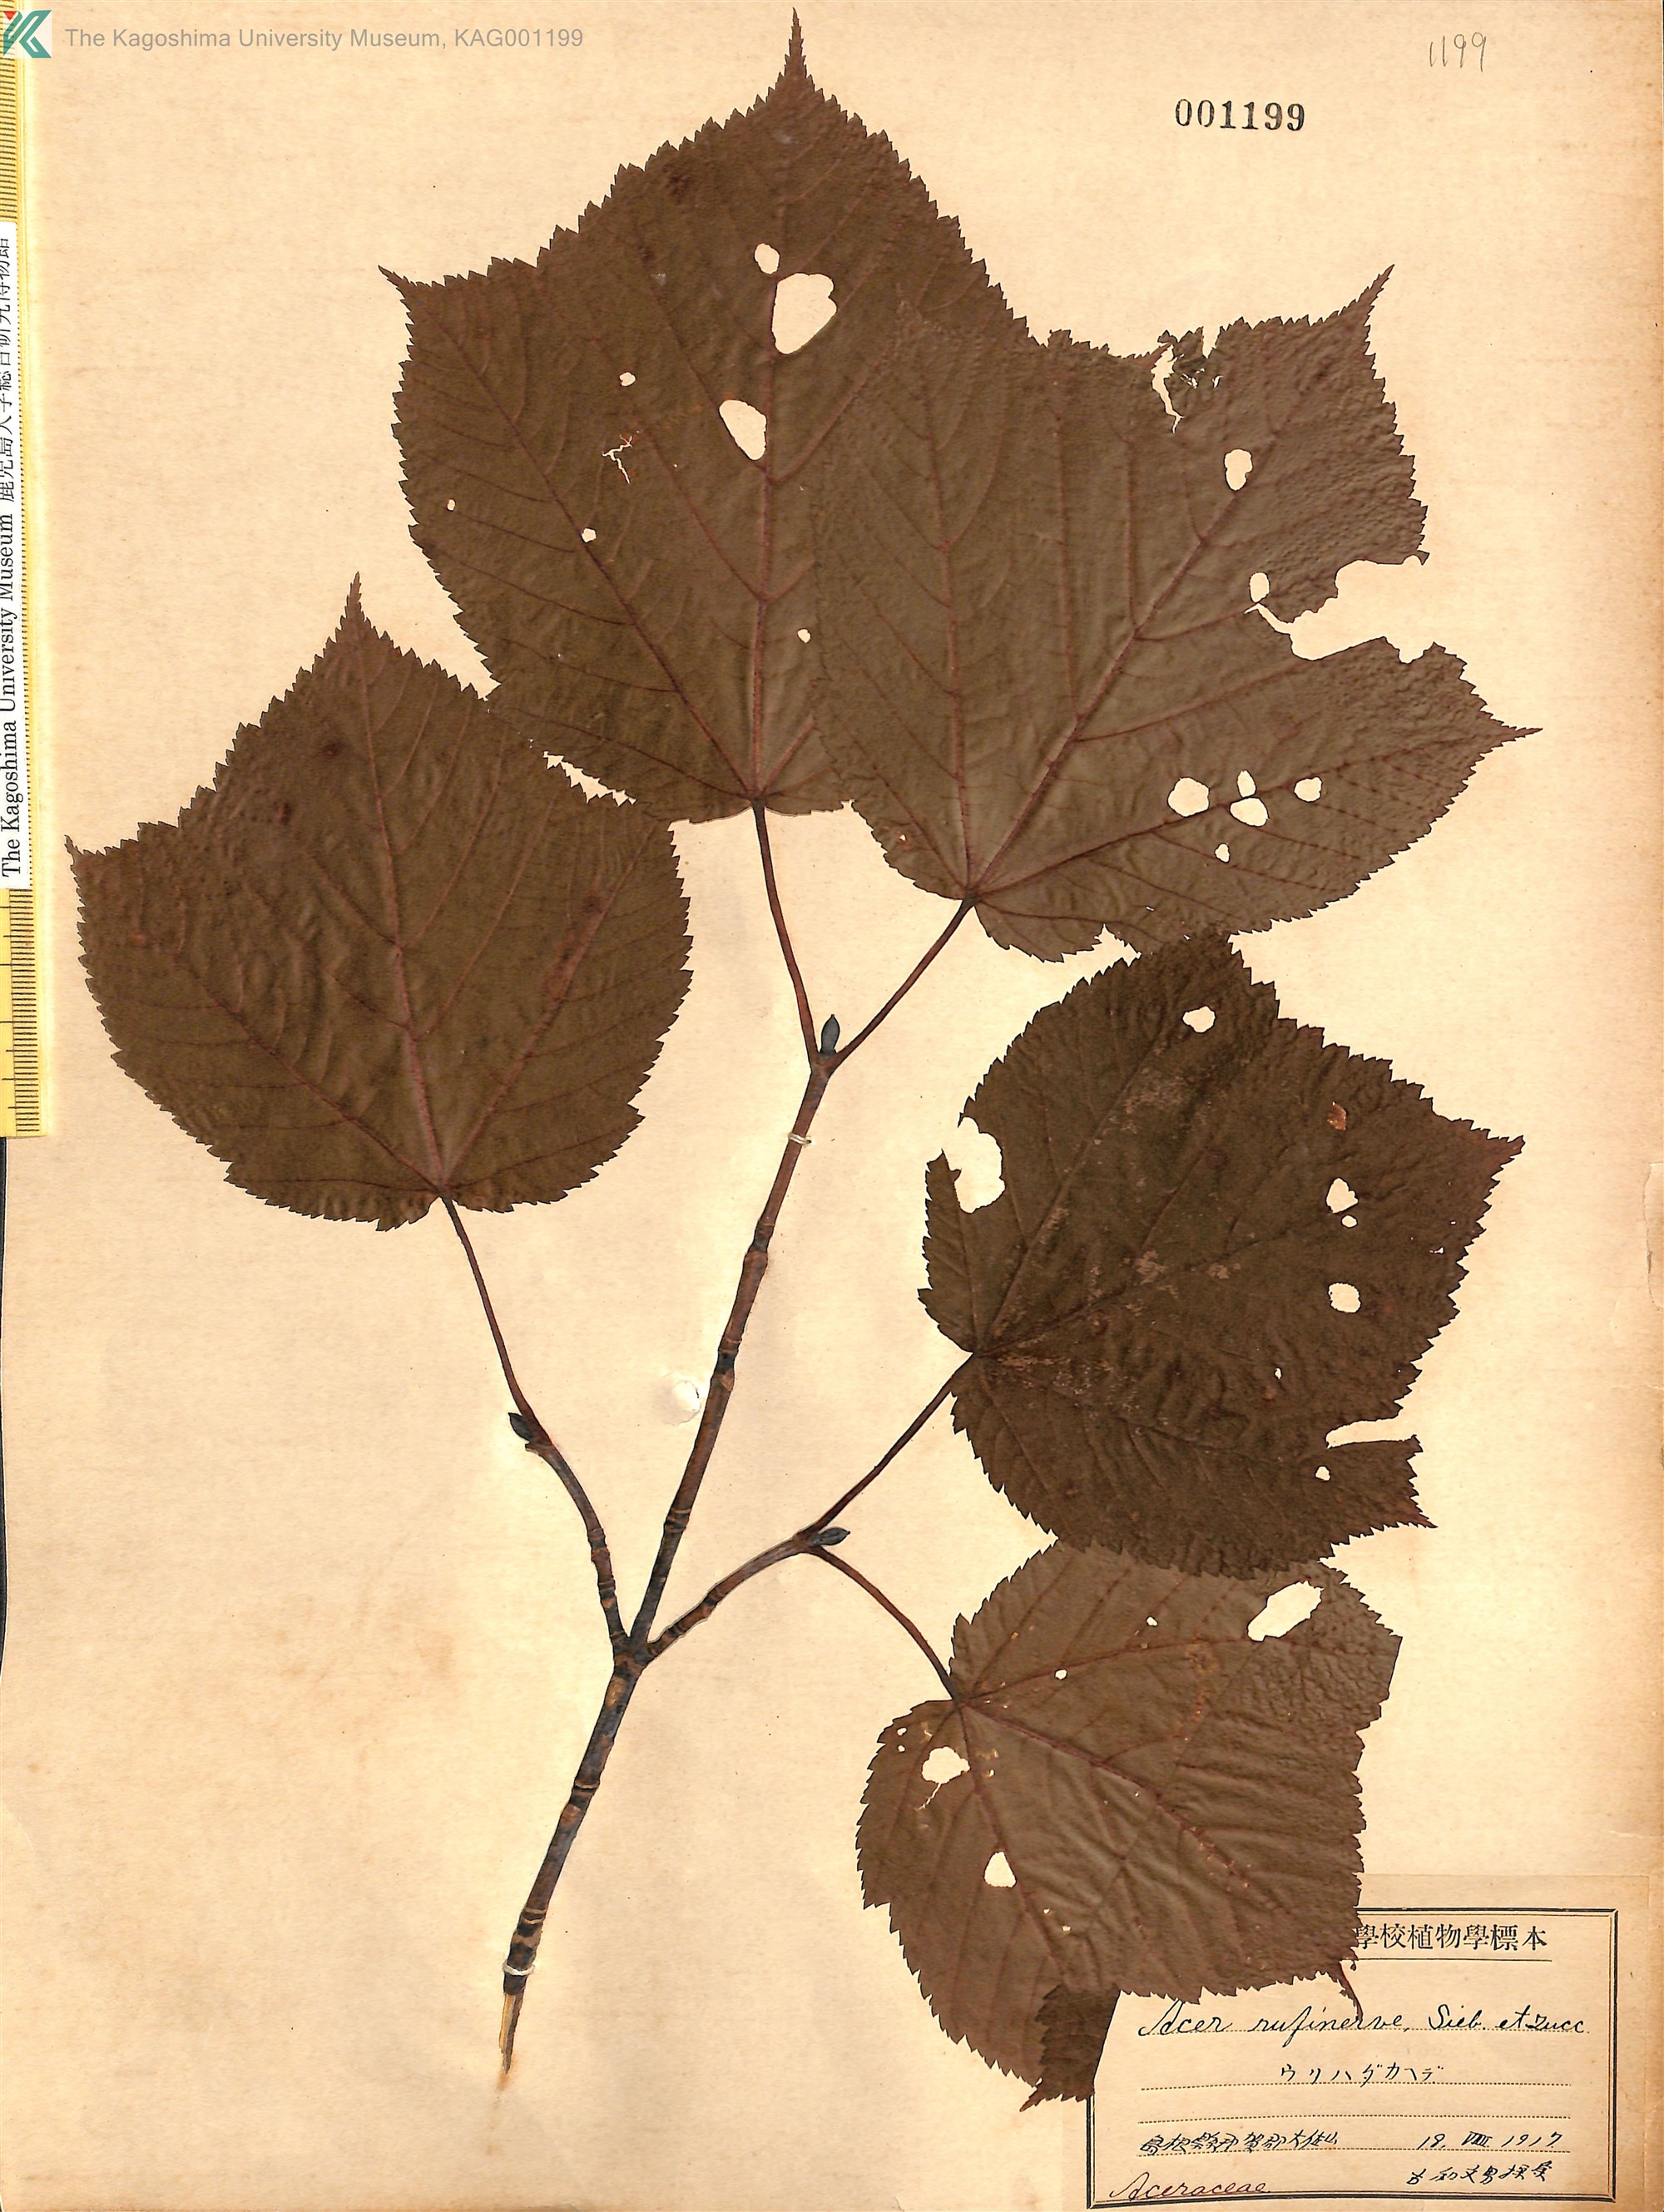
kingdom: Plantae
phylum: Tracheophyta
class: Magnoliopsida
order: Sapindales
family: Sapindaceae
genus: Acer
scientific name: Acer rufinerve
